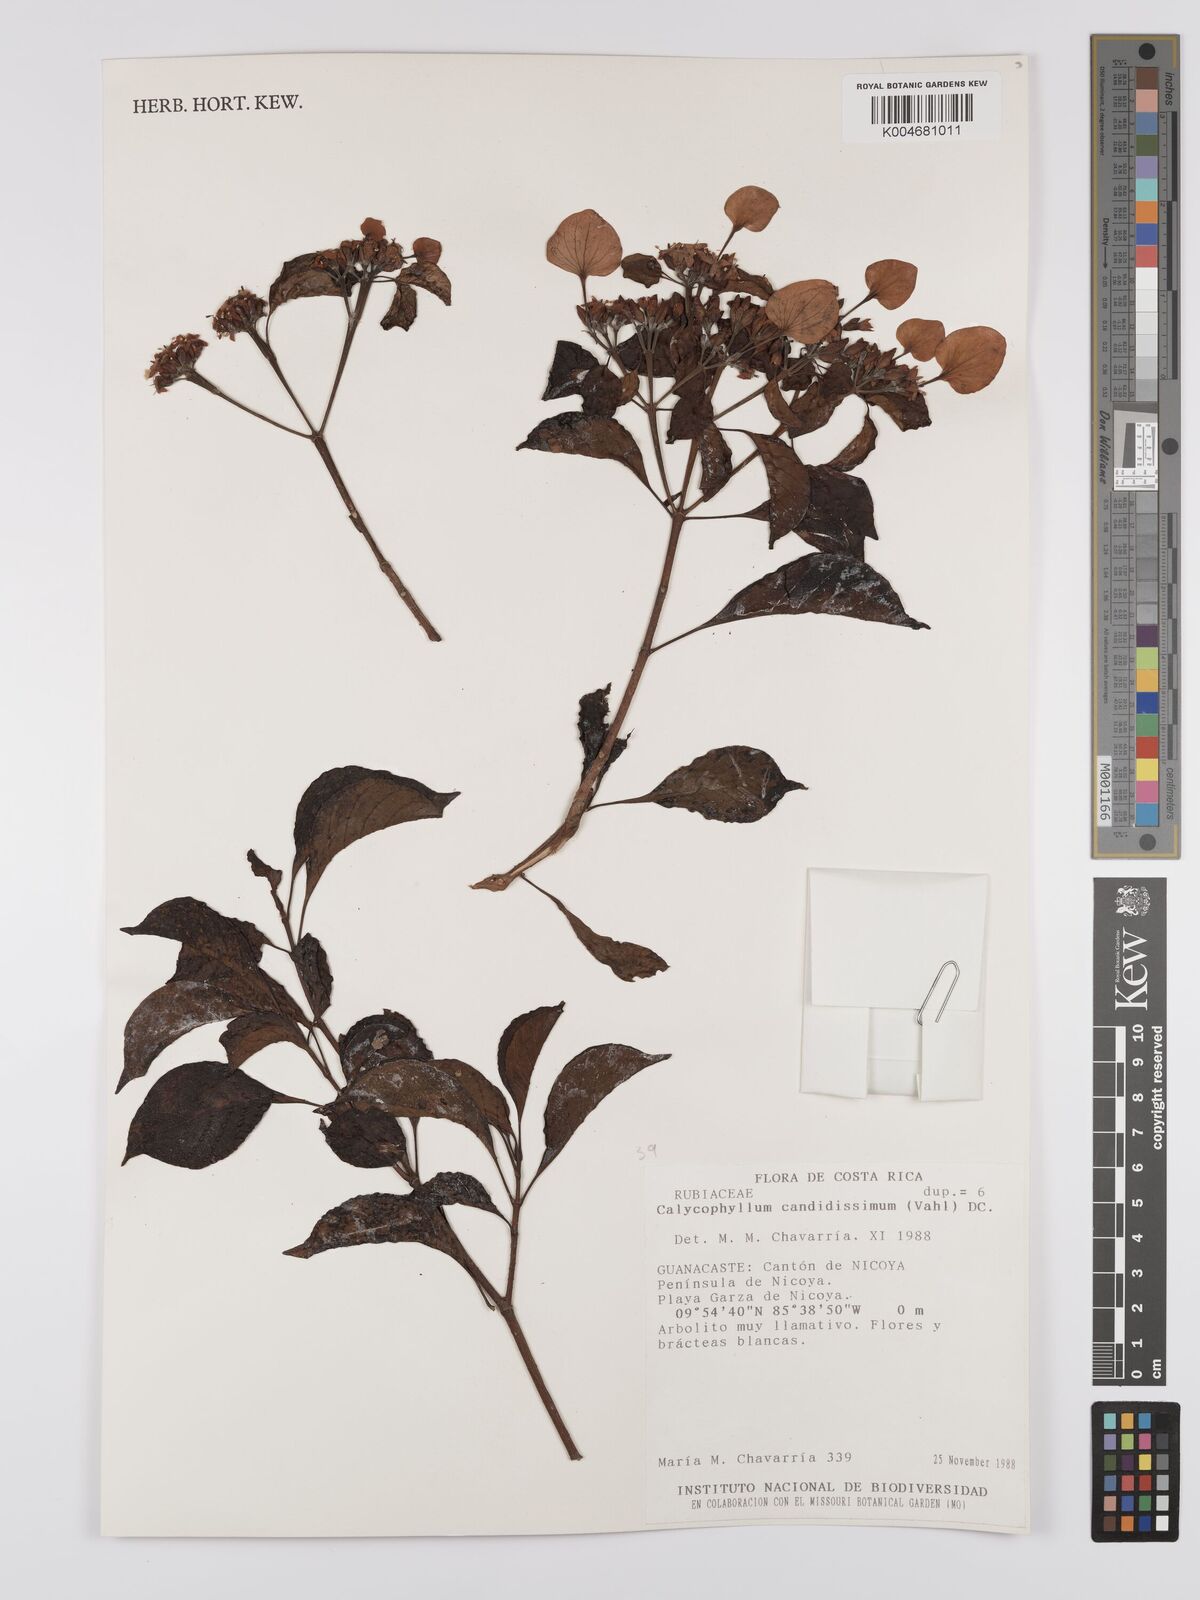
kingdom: Plantae
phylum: Tracheophyta
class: Magnoliopsida
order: Gentianales
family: Rubiaceae
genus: Calycophyllum
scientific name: Calycophyllum candidissimum
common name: Dagame
